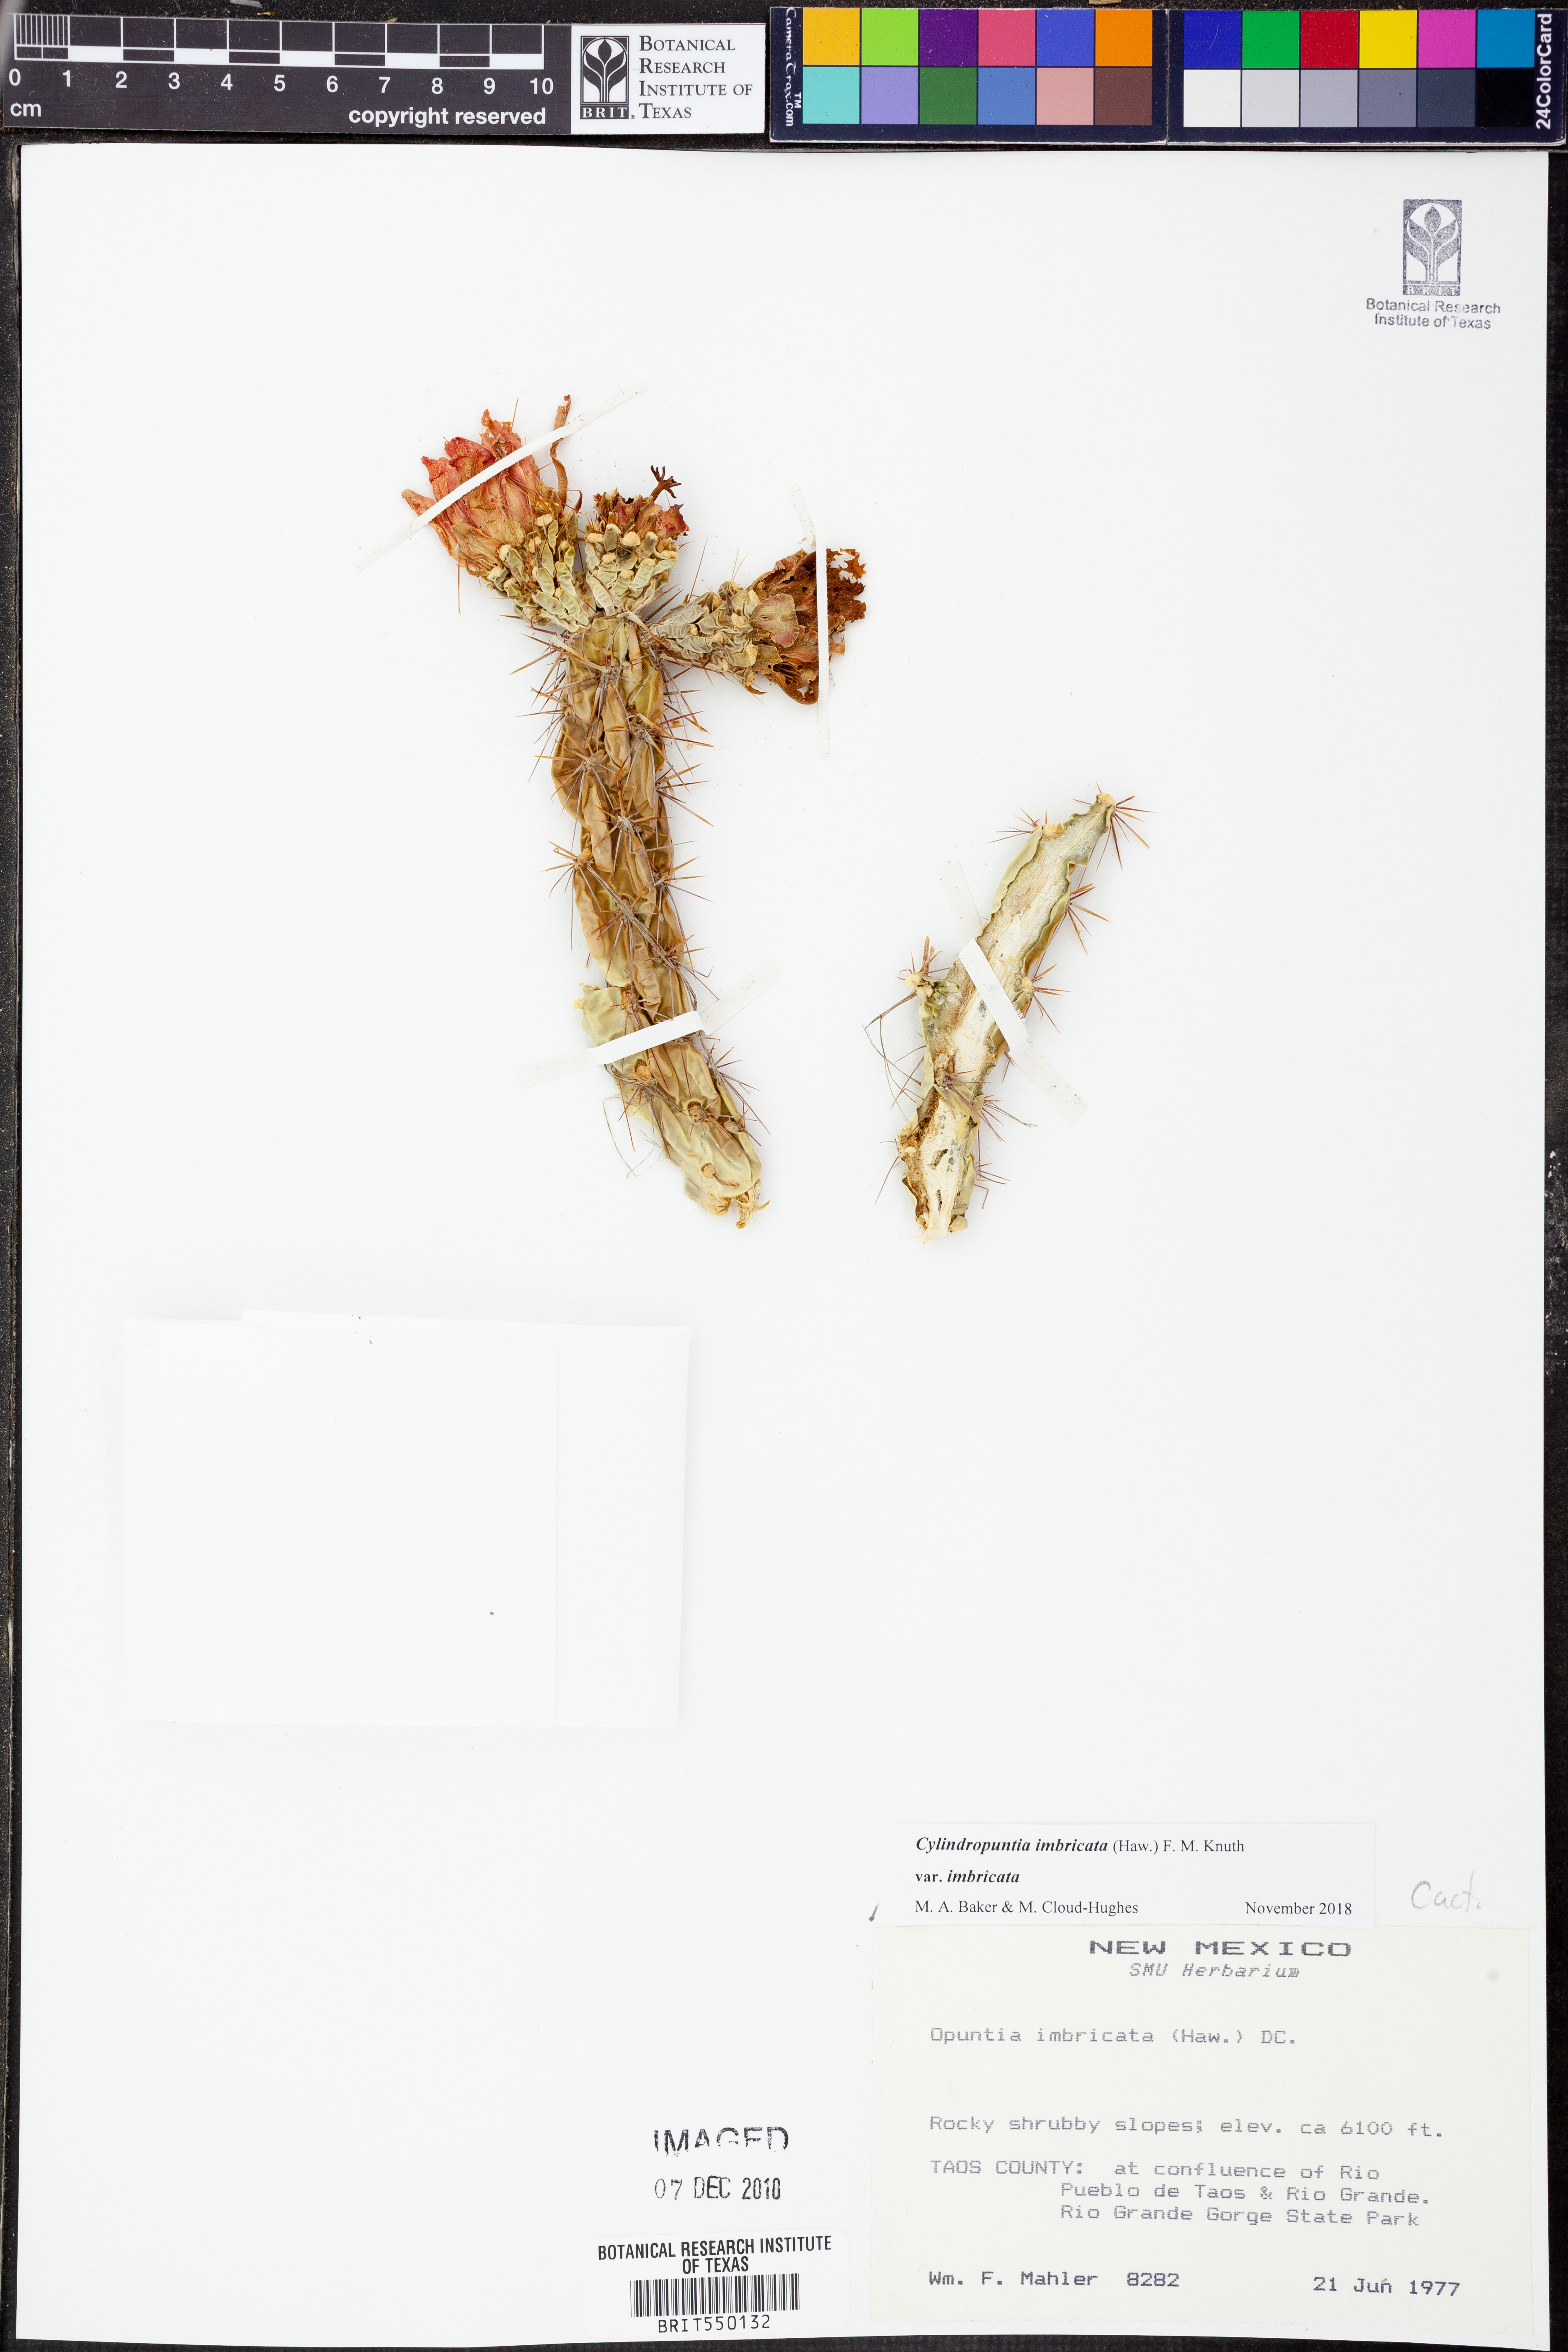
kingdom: Plantae
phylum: Tracheophyta
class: Magnoliopsida
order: Caryophyllales
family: Cactaceae
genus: Cylindropuntia
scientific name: Cylindropuntia imbricata
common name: Candelabrum cactus
